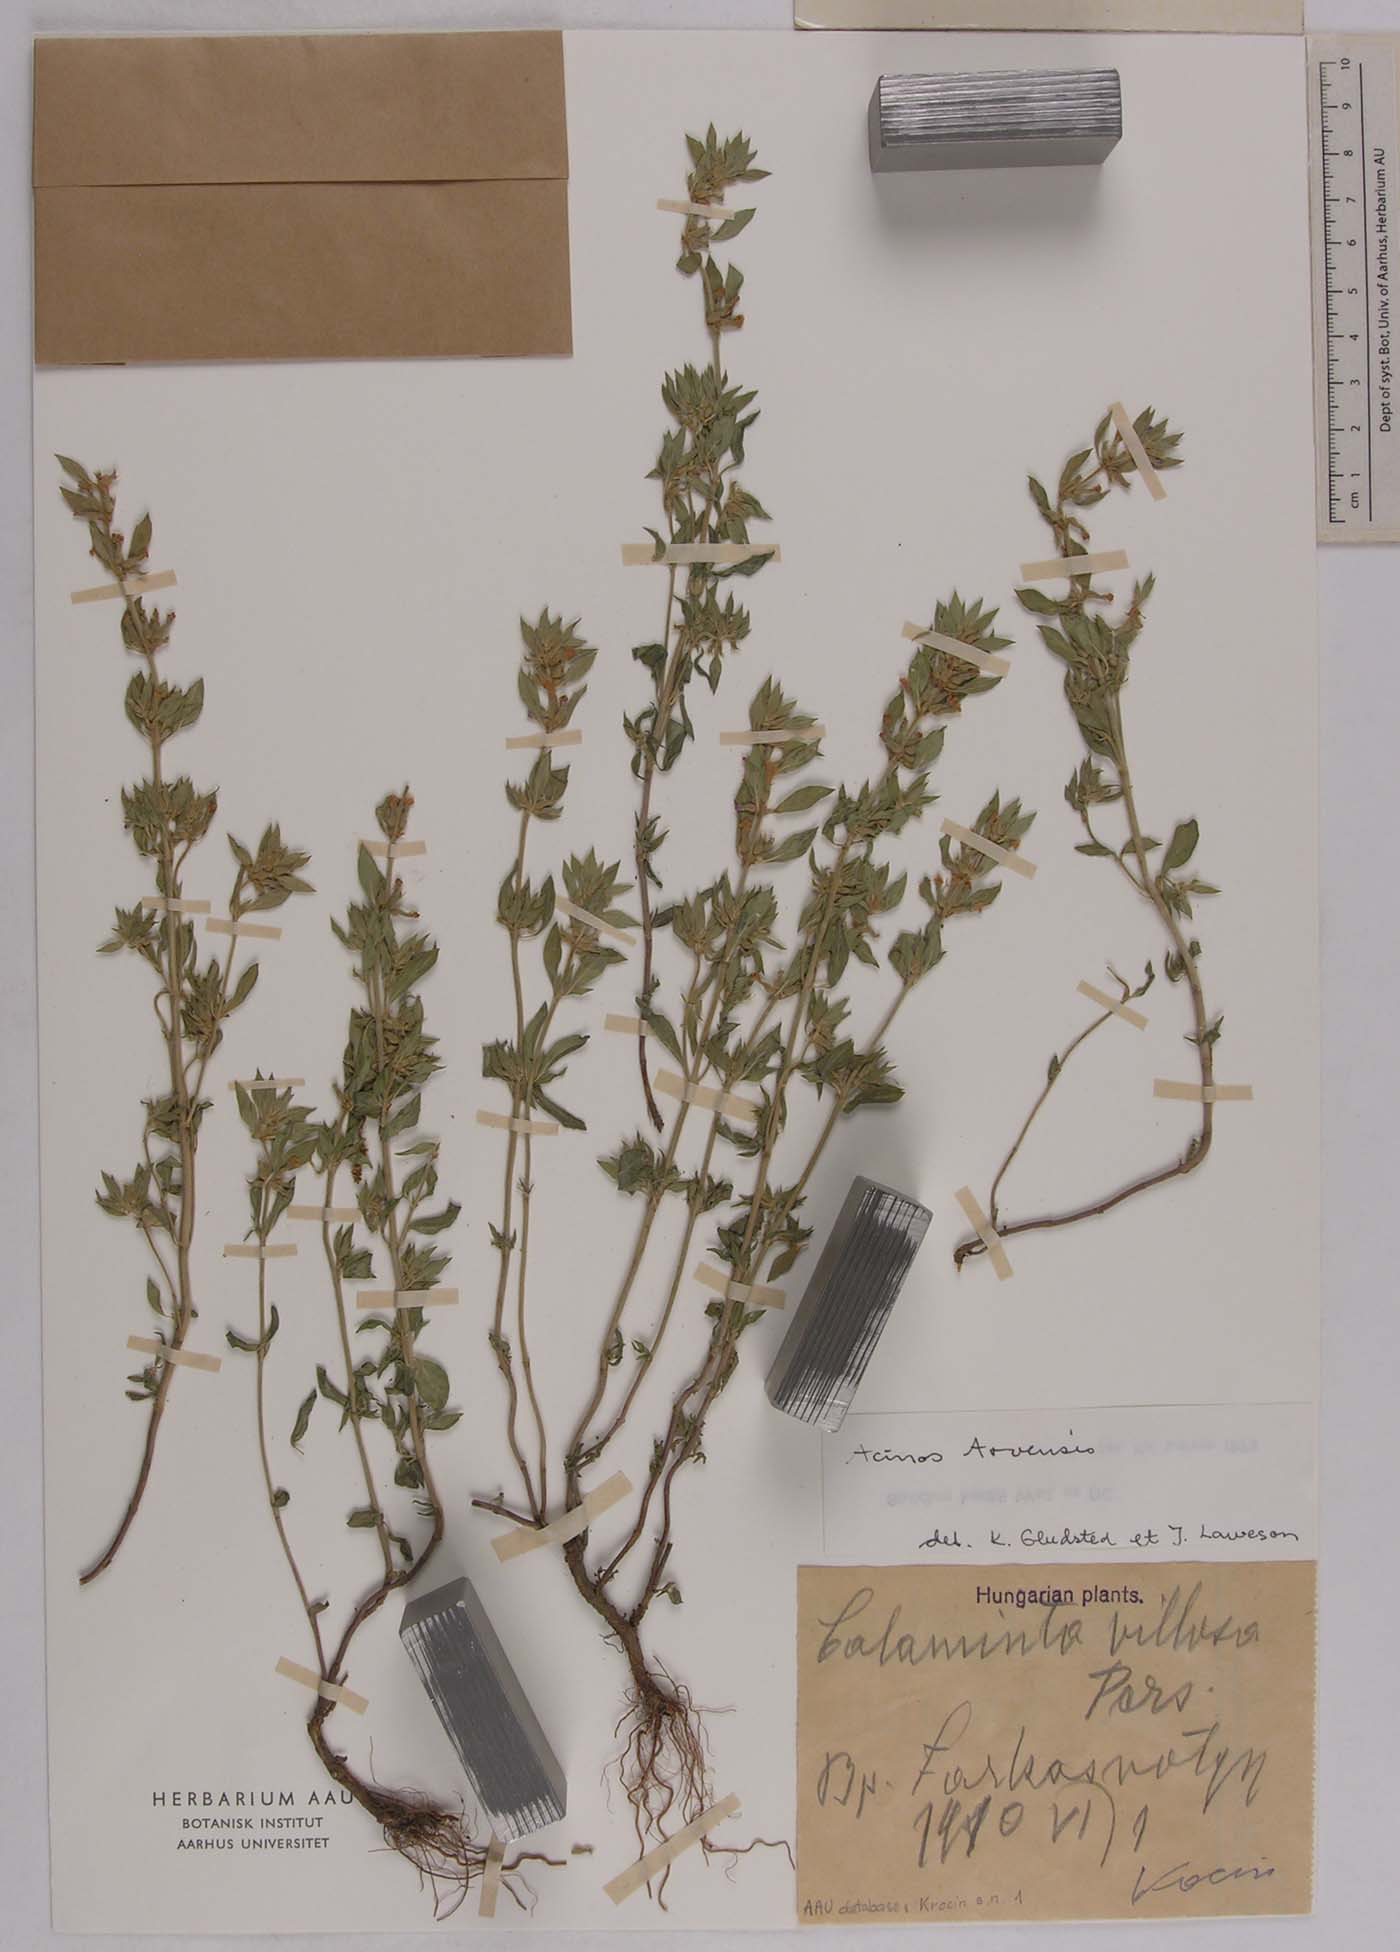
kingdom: Plantae
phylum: Tracheophyta
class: Magnoliopsida
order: Lamiales
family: Lamiaceae
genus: Clinopodium
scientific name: Clinopodium acinos
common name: Basil thyme
